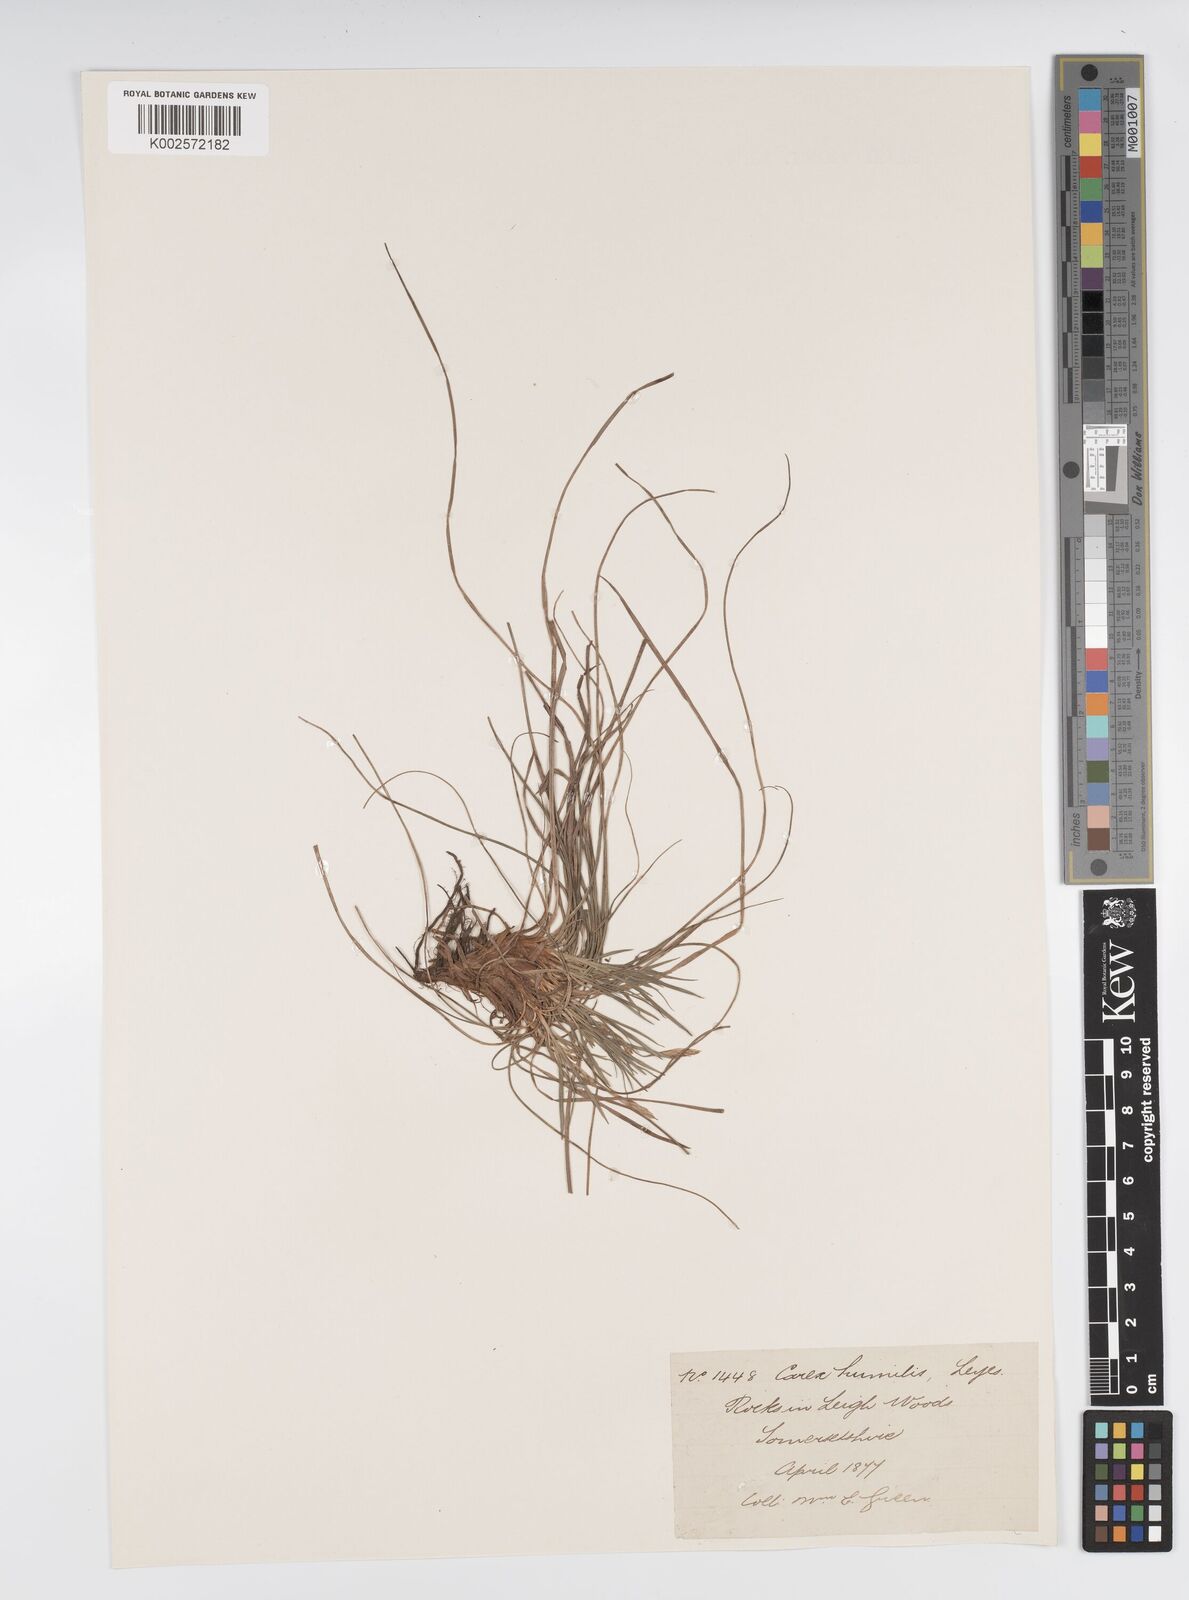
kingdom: Plantae
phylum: Tracheophyta
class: Liliopsida
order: Poales
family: Cyperaceae
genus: Carex
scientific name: Carex humilis
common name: Dwarf sedge
